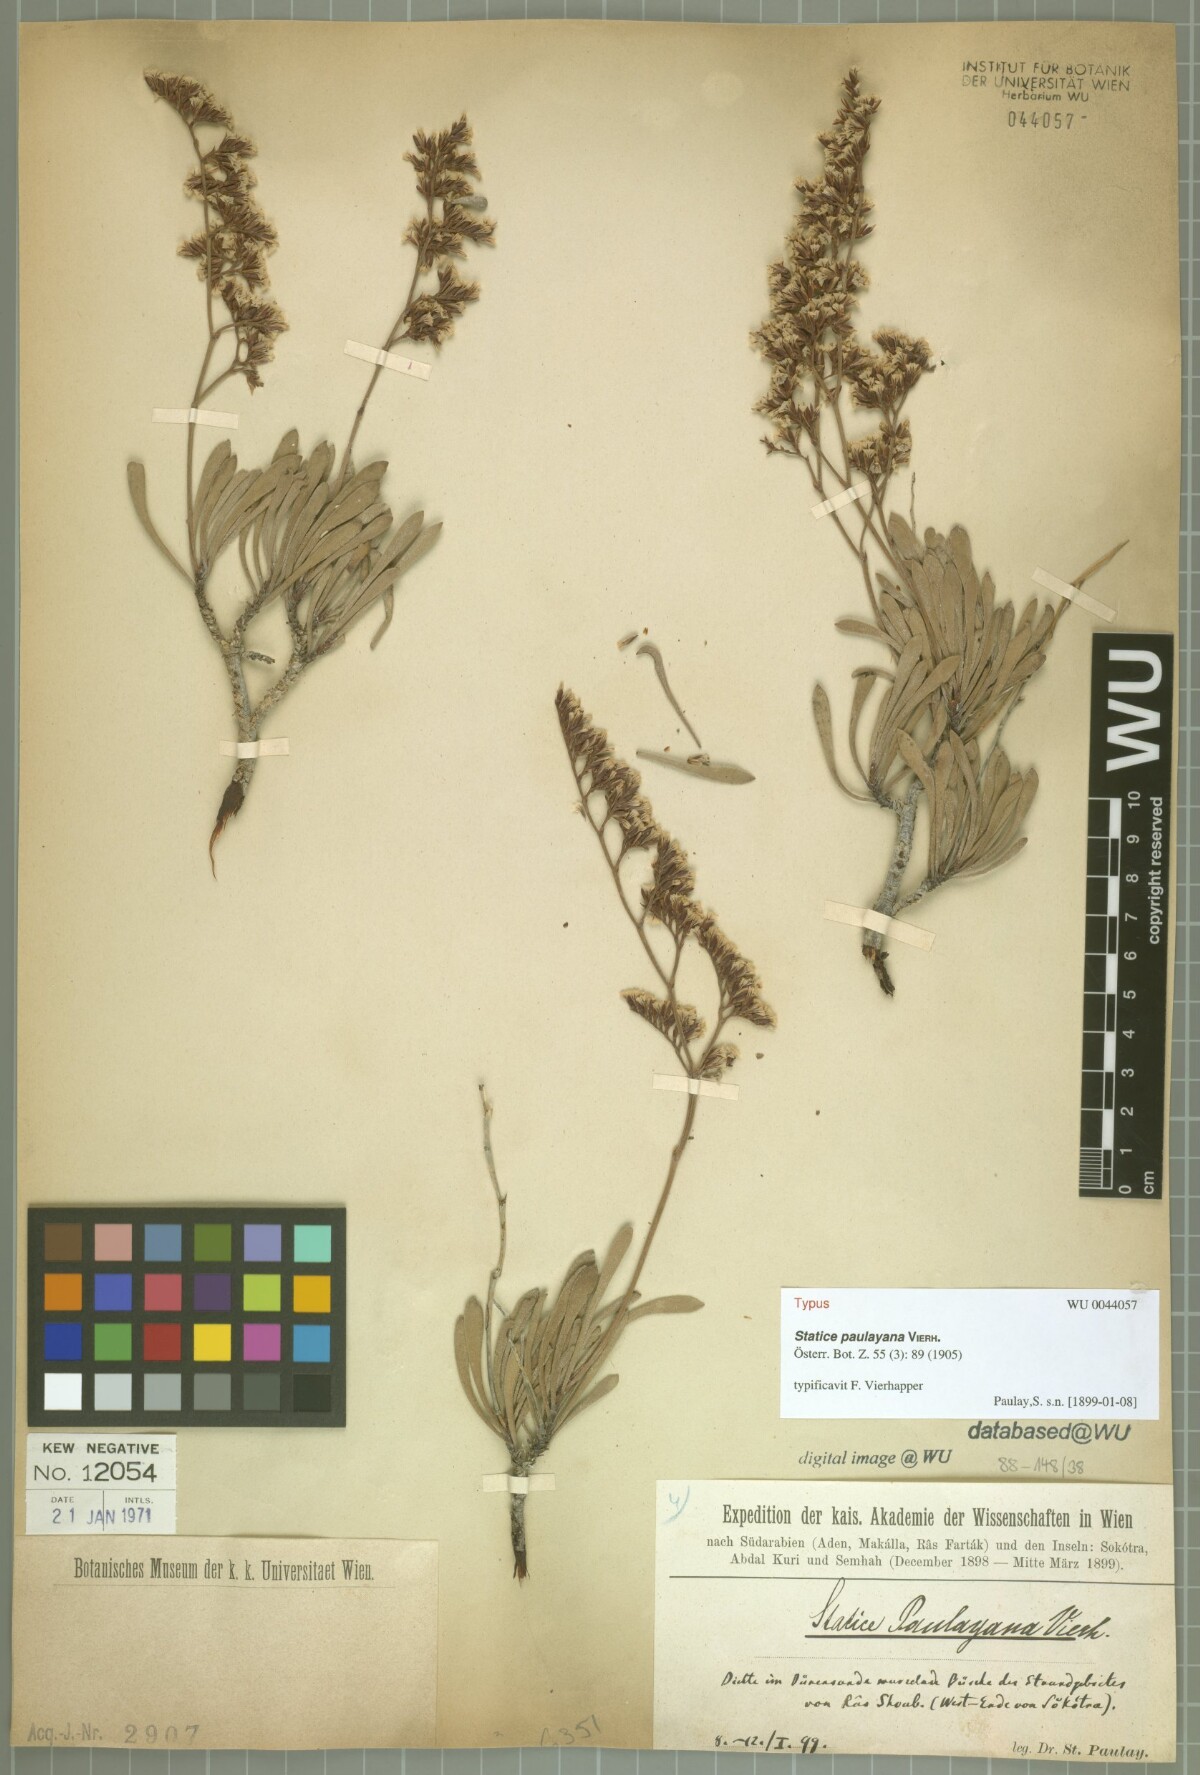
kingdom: Plantae
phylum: Tracheophyta
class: Magnoliopsida
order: Caryophyllales
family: Plumbaginaceae
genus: Limonium
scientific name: Limonium paulayanum
